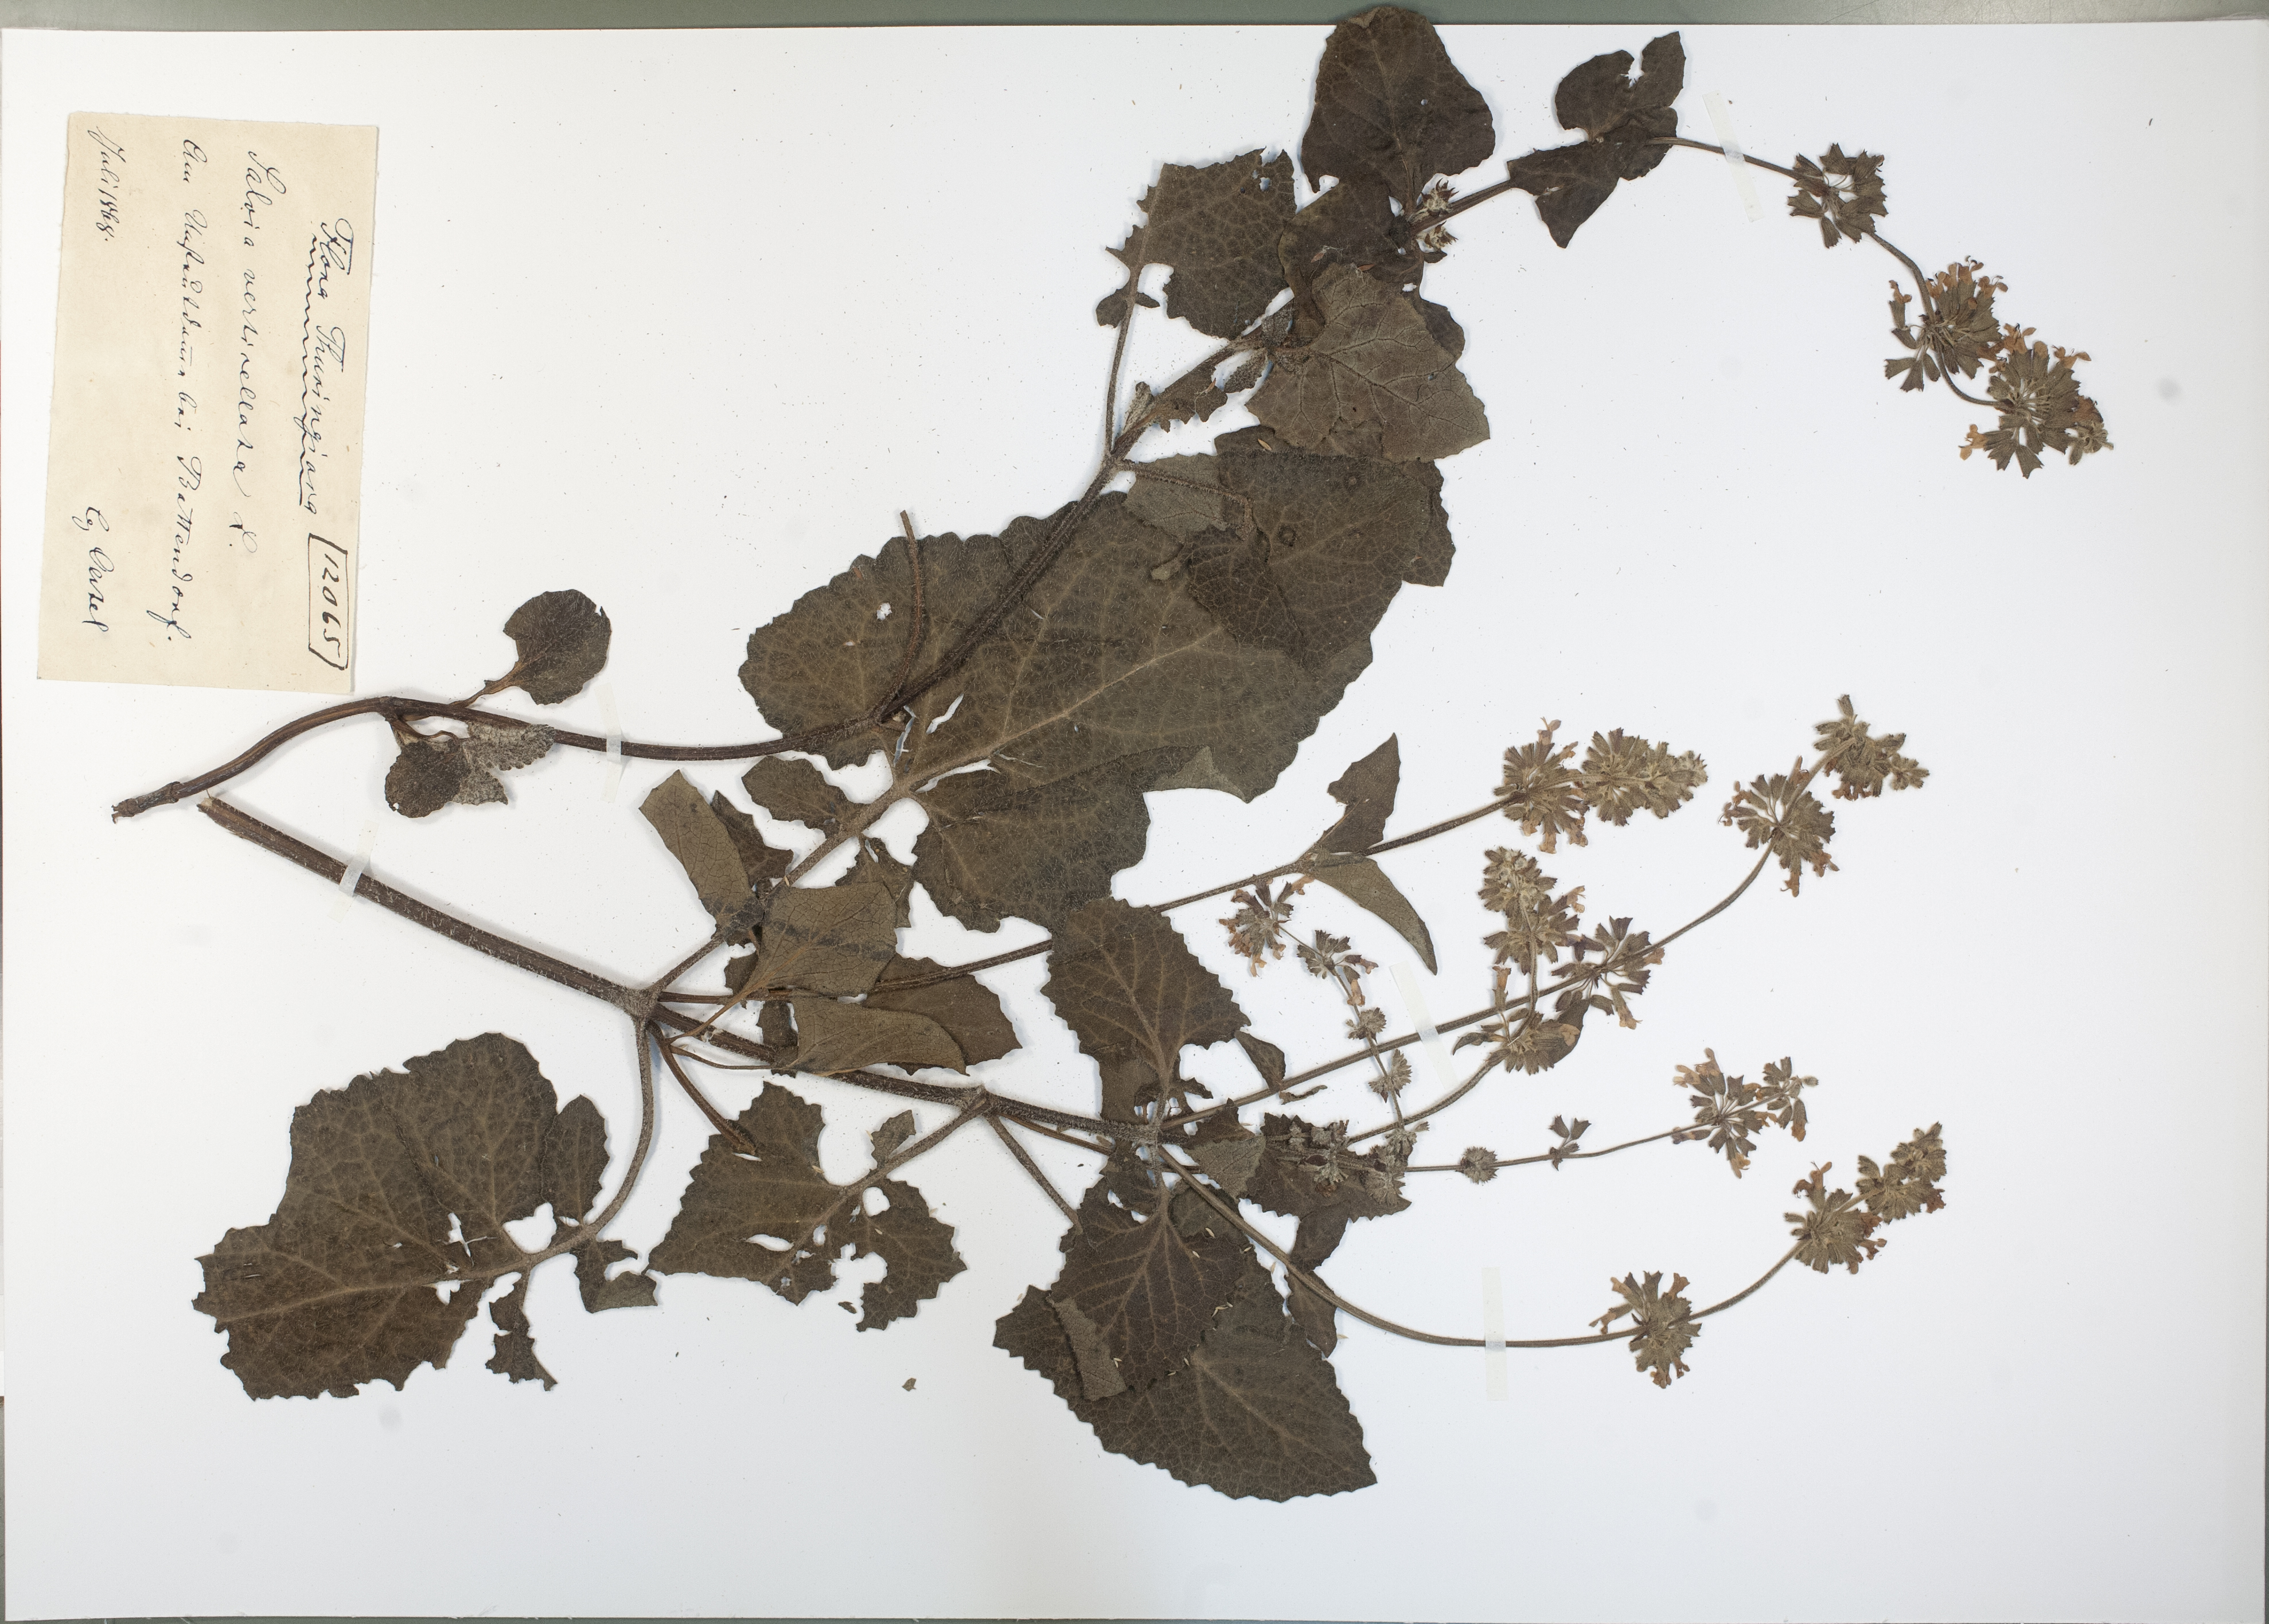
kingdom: Plantae
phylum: Tracheophyta
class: Magnoliopsida
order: Lamiales
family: Lamiaceae
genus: Salvia
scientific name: Salvia verticillata
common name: Whorled clary
